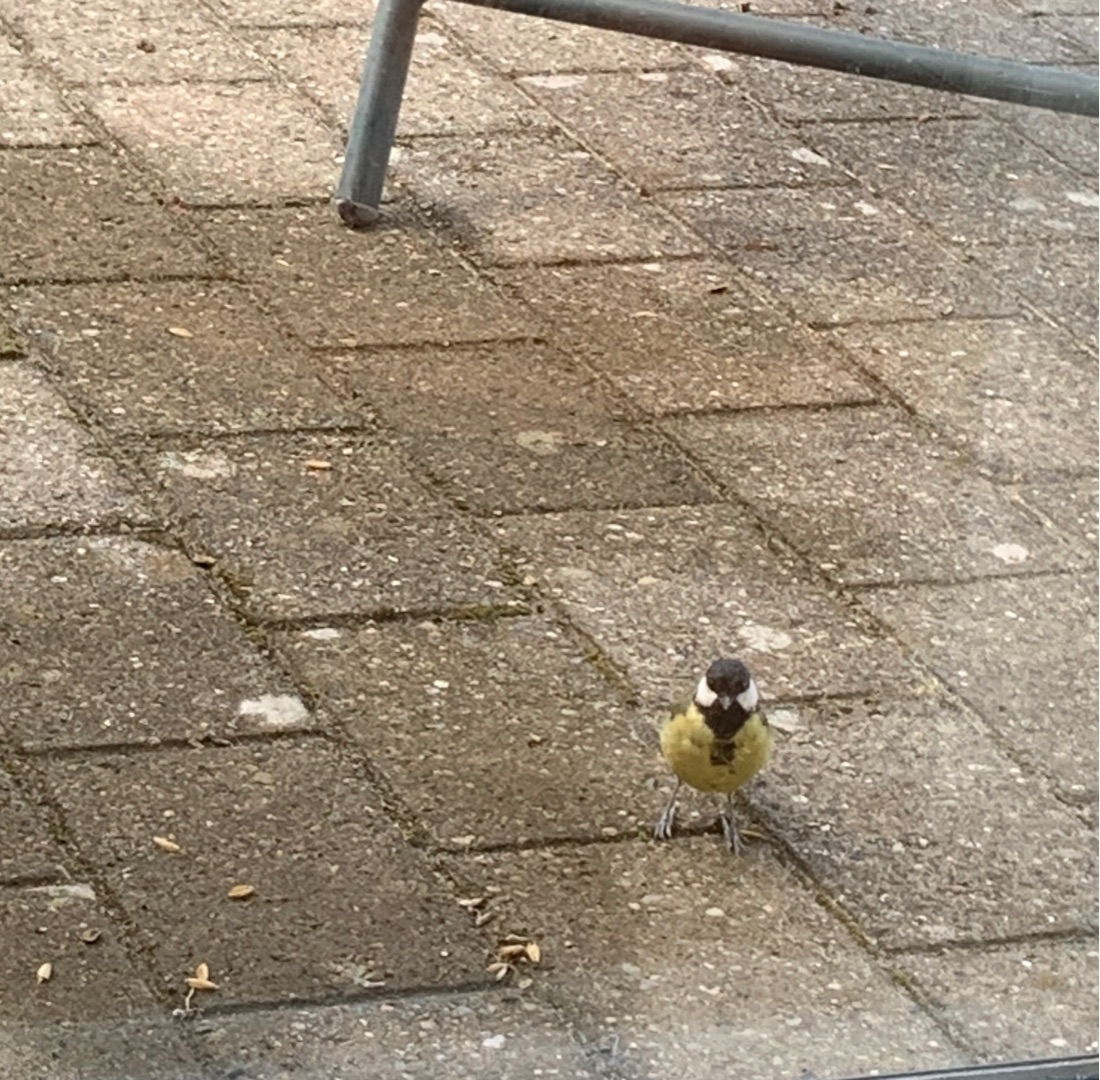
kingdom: Animalia
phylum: Chordata
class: Aves
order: Passeriformes
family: Paridae
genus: Parus
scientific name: Parus major
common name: Musvit
